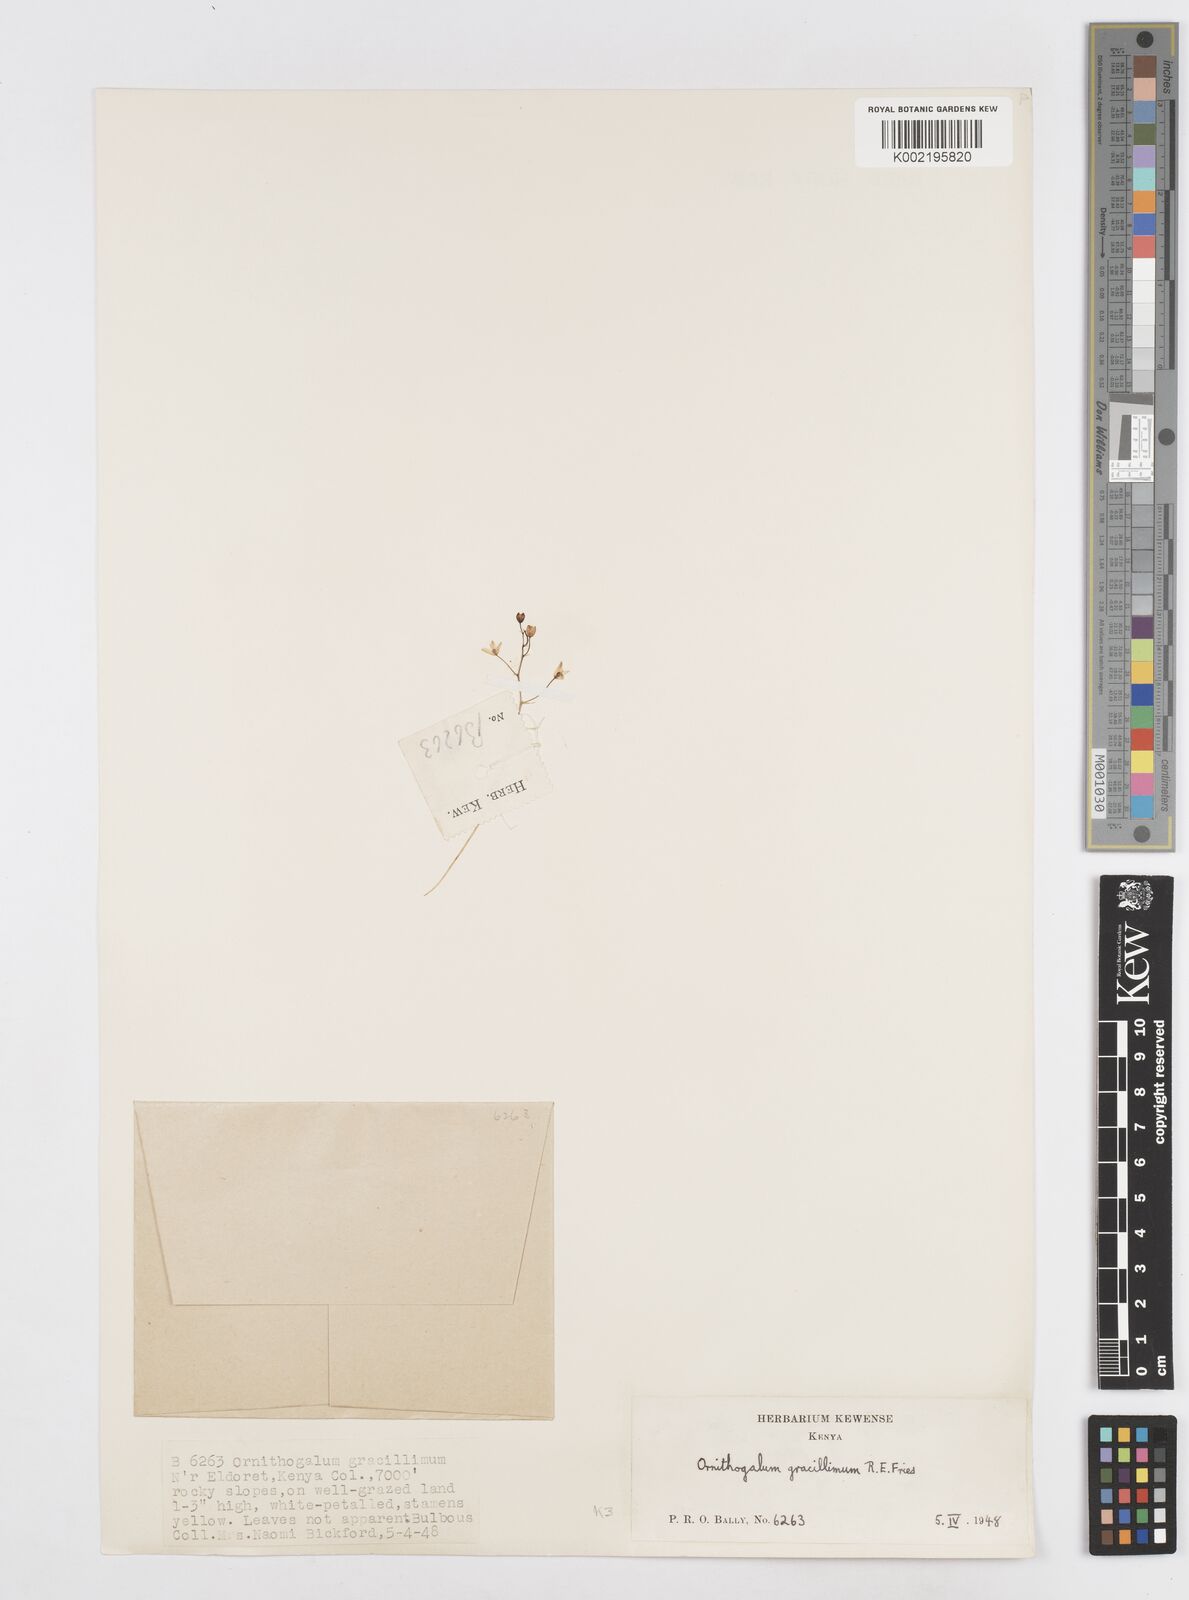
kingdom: Plantae
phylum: Tracheophyta
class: Liliopsida
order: Asparagales
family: Asparagaceae
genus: Ornithogalum
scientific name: Ornithogalum gracillimum
